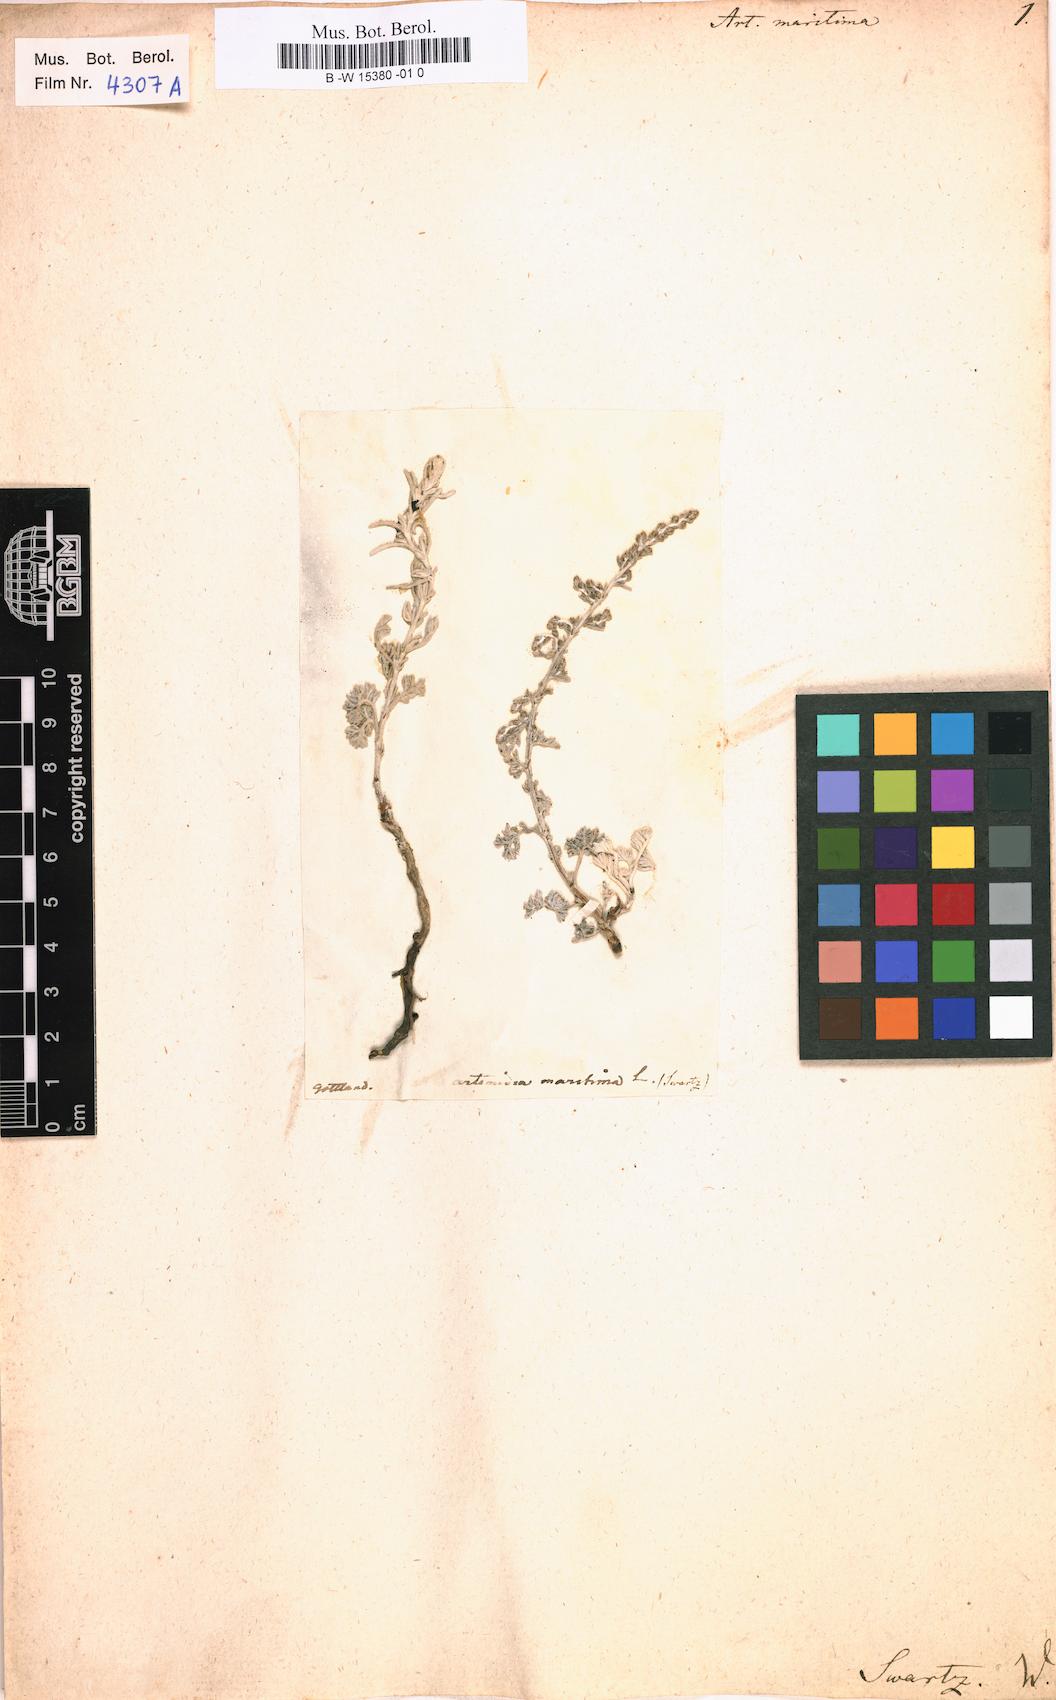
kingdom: Plantae
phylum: Tracheophyta
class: Magnoliopsida
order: Asterales
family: Asteraceae
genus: Artemisia
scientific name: Artemisia maritima
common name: Wormseed
